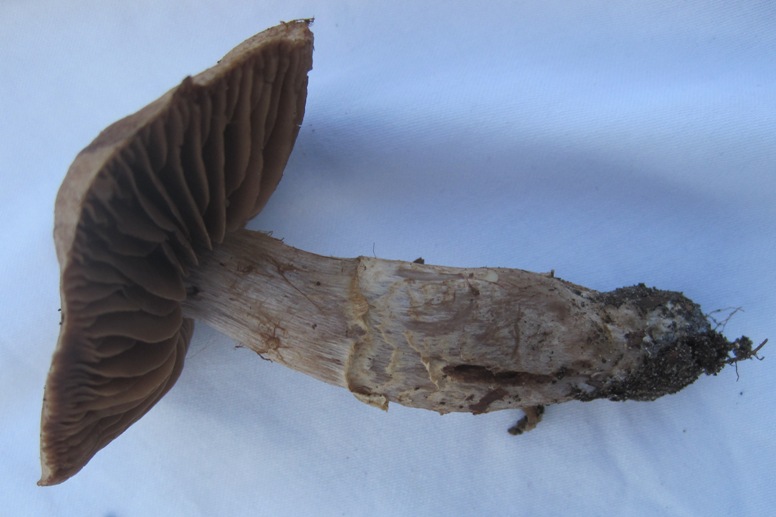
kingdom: Fungi
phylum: Basidiomycota
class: Agaricomycetes
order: Agaricales
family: Cortinariaceae
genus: Cortinarius
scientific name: Cortinarius torvus
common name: champignonagtig slørhat
